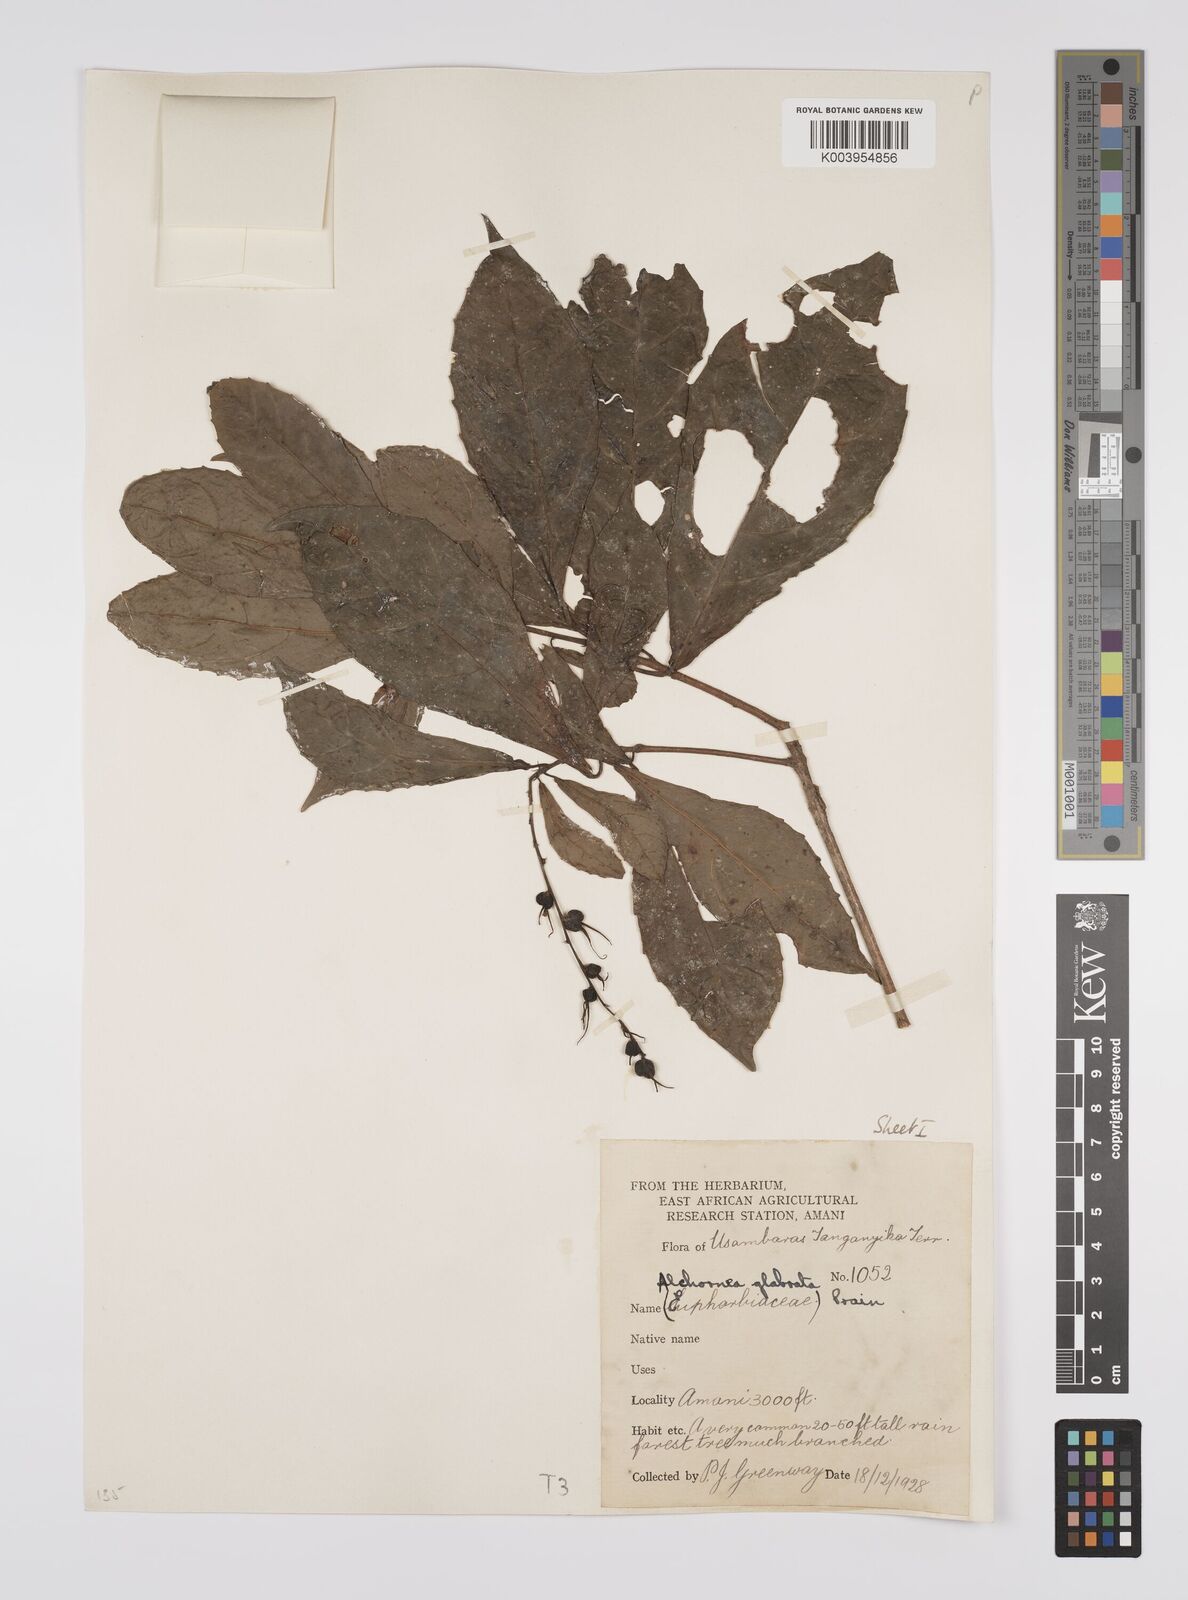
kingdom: Plantae
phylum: Tracheophyta
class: Magnoliopsida
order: Malpighiales
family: Euphorbiaceae
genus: Alchornea
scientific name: Alchornea hirtella
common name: Forest bead-string
